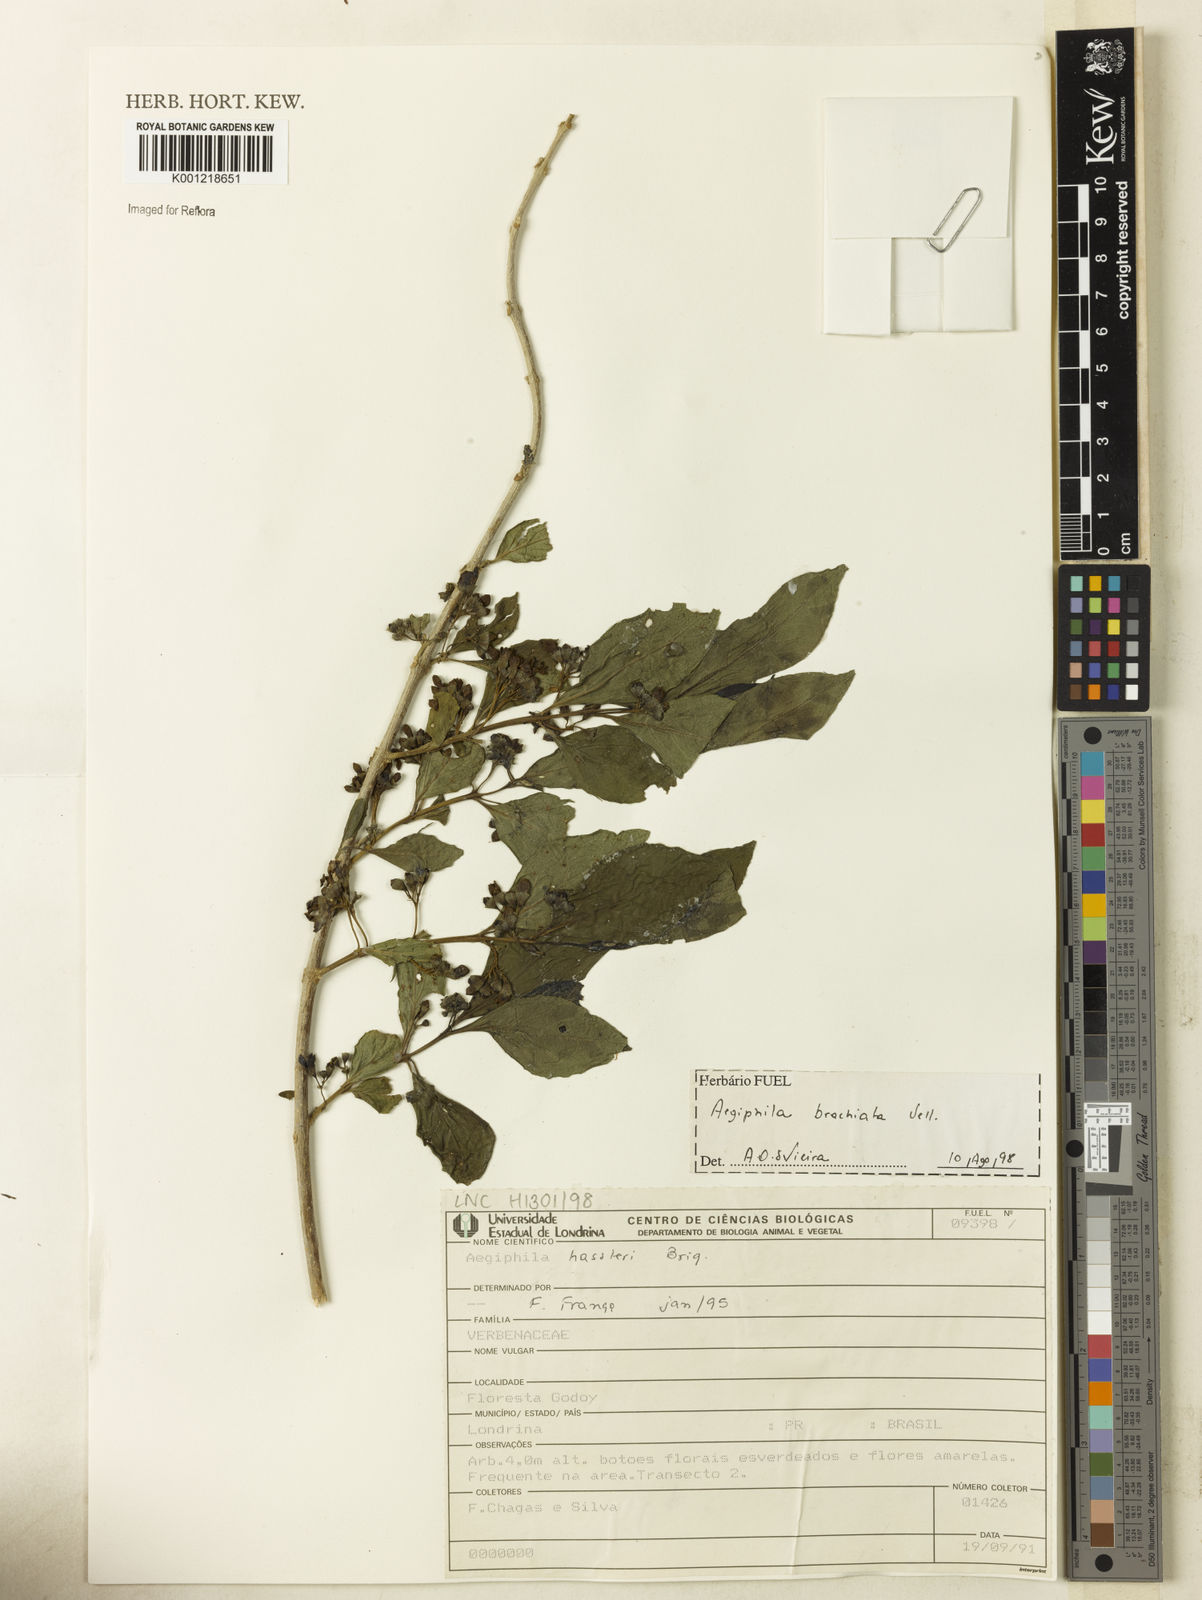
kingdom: Plantae
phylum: Tracheophyta
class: Magnoliopsida
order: Lamiales
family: Lamiaceae
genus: Aegiphila
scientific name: Aegiphila brachiata
